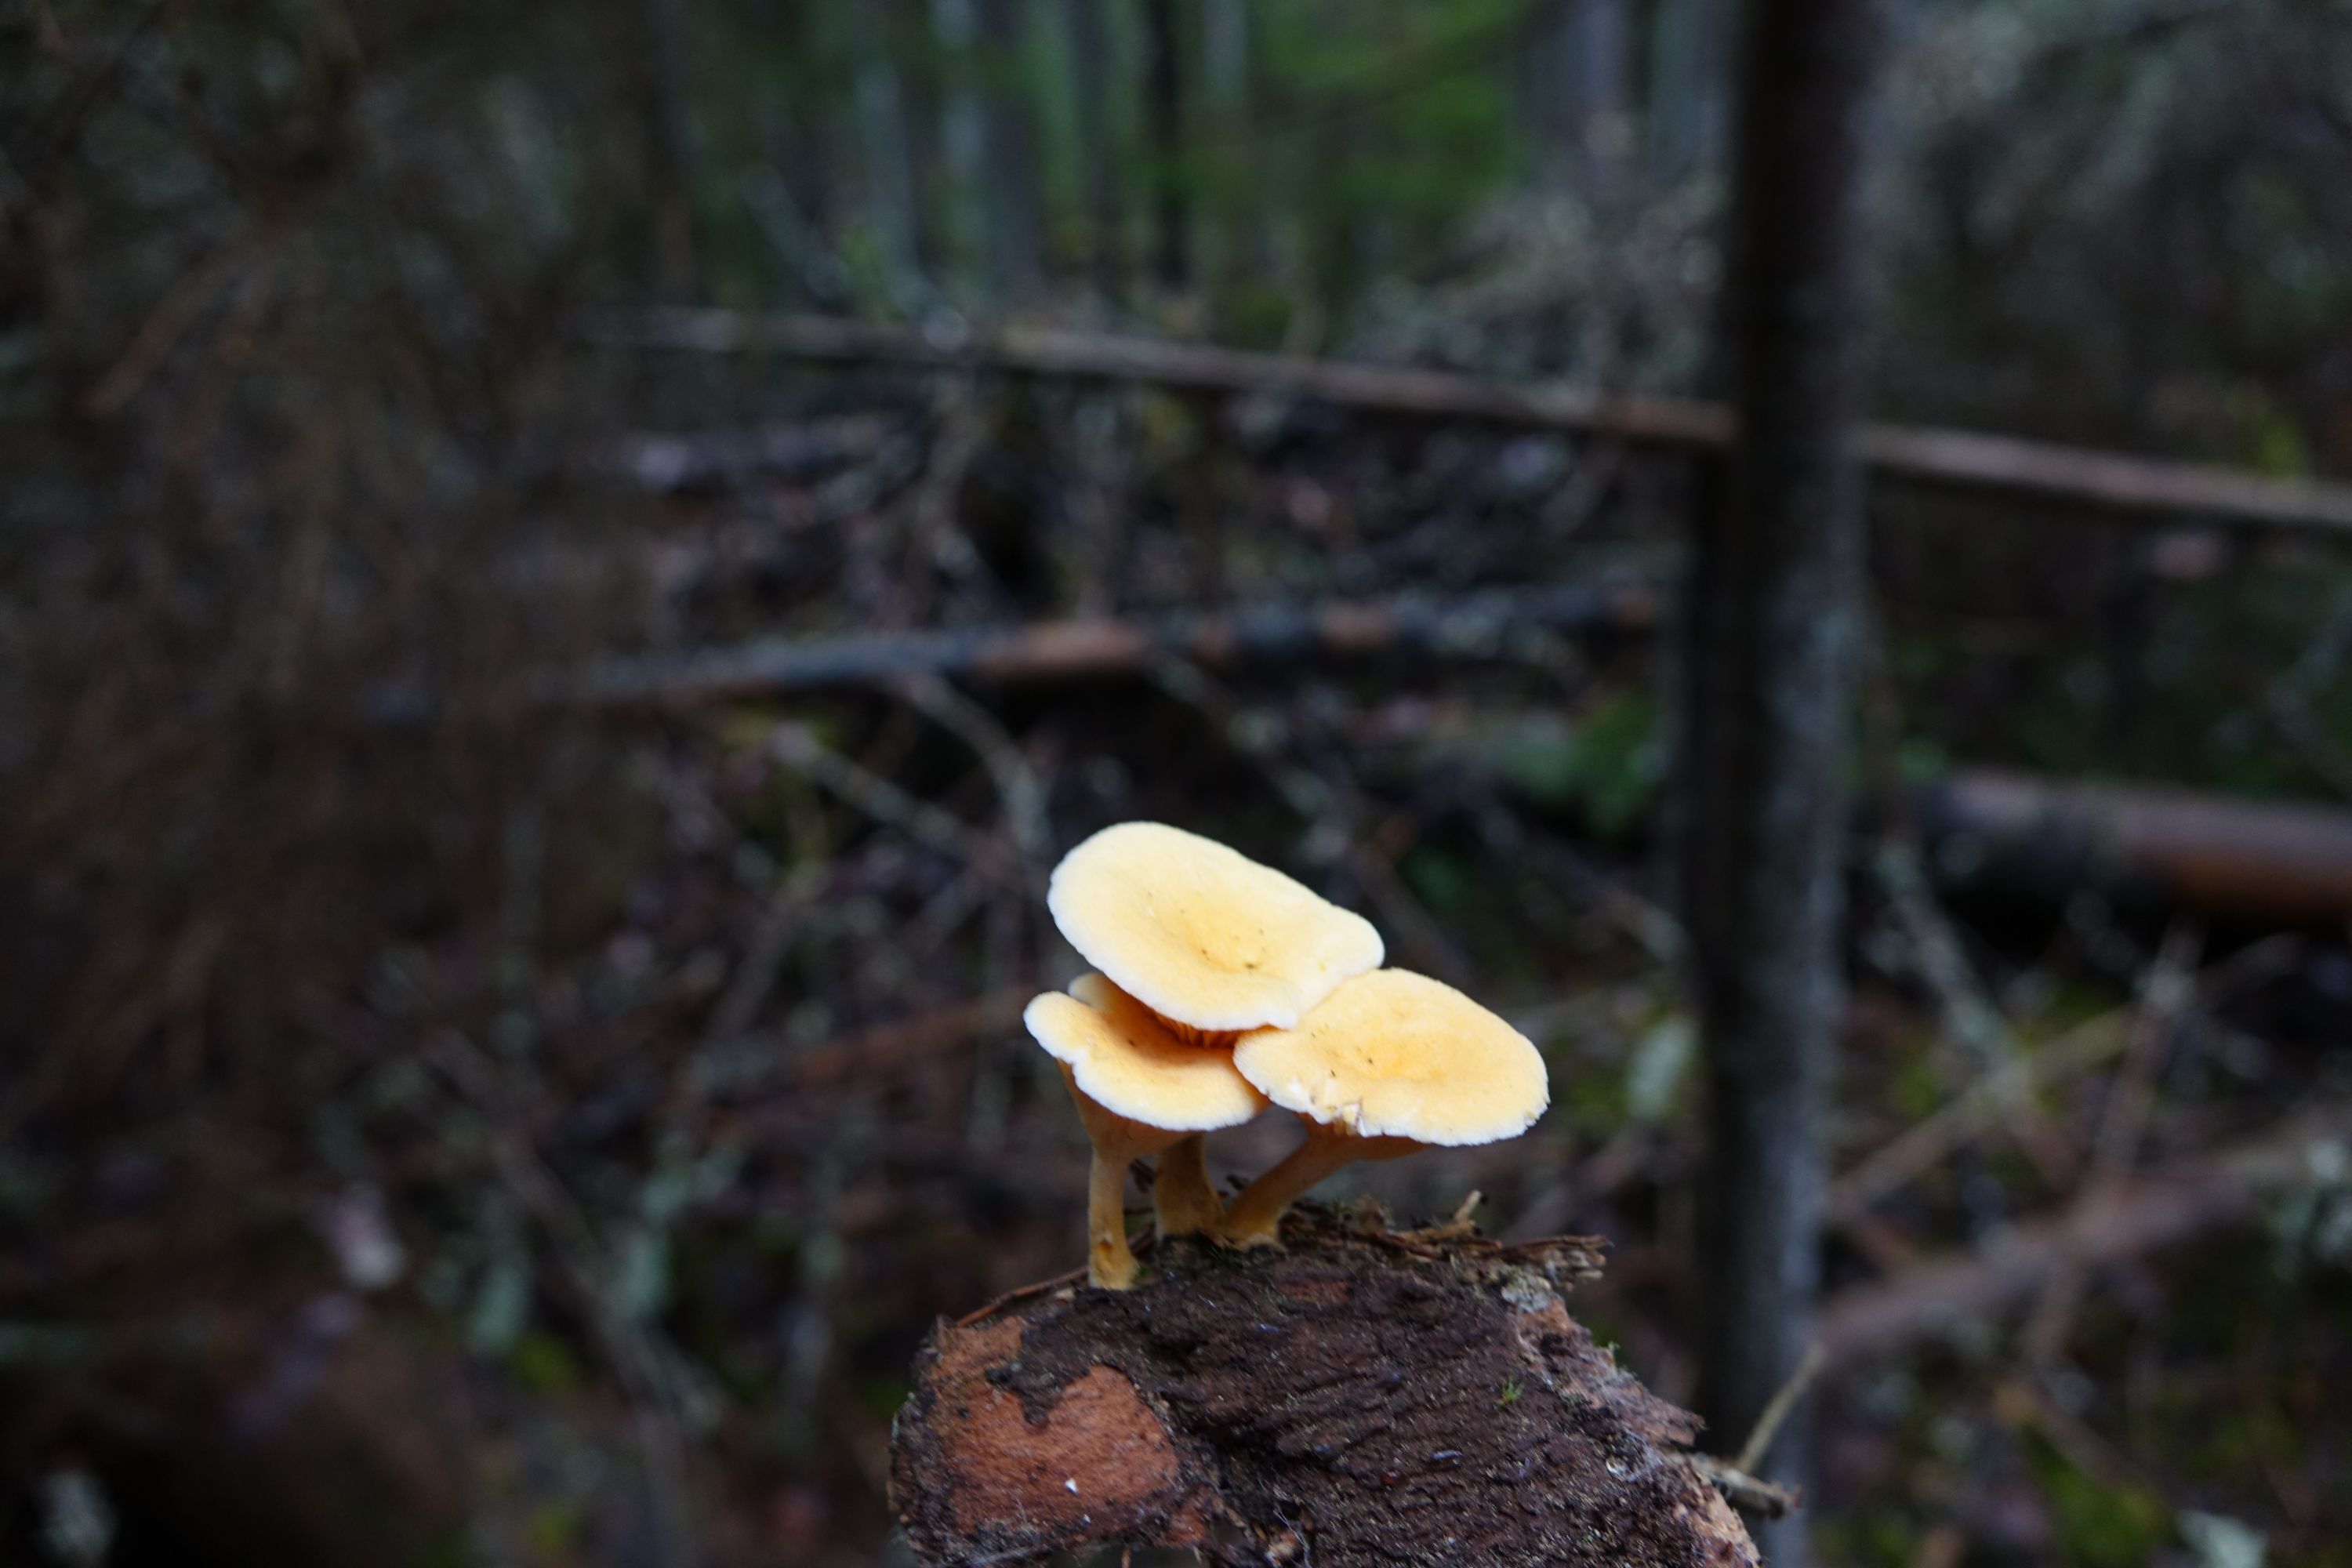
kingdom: Fungi
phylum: Basidiomycota
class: Agaricomycetes
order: Boletales
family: Hygrophoropsidaceae
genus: Hygrophoropsis
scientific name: Hygrophoropsis aurantiaca
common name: False chanterelle
